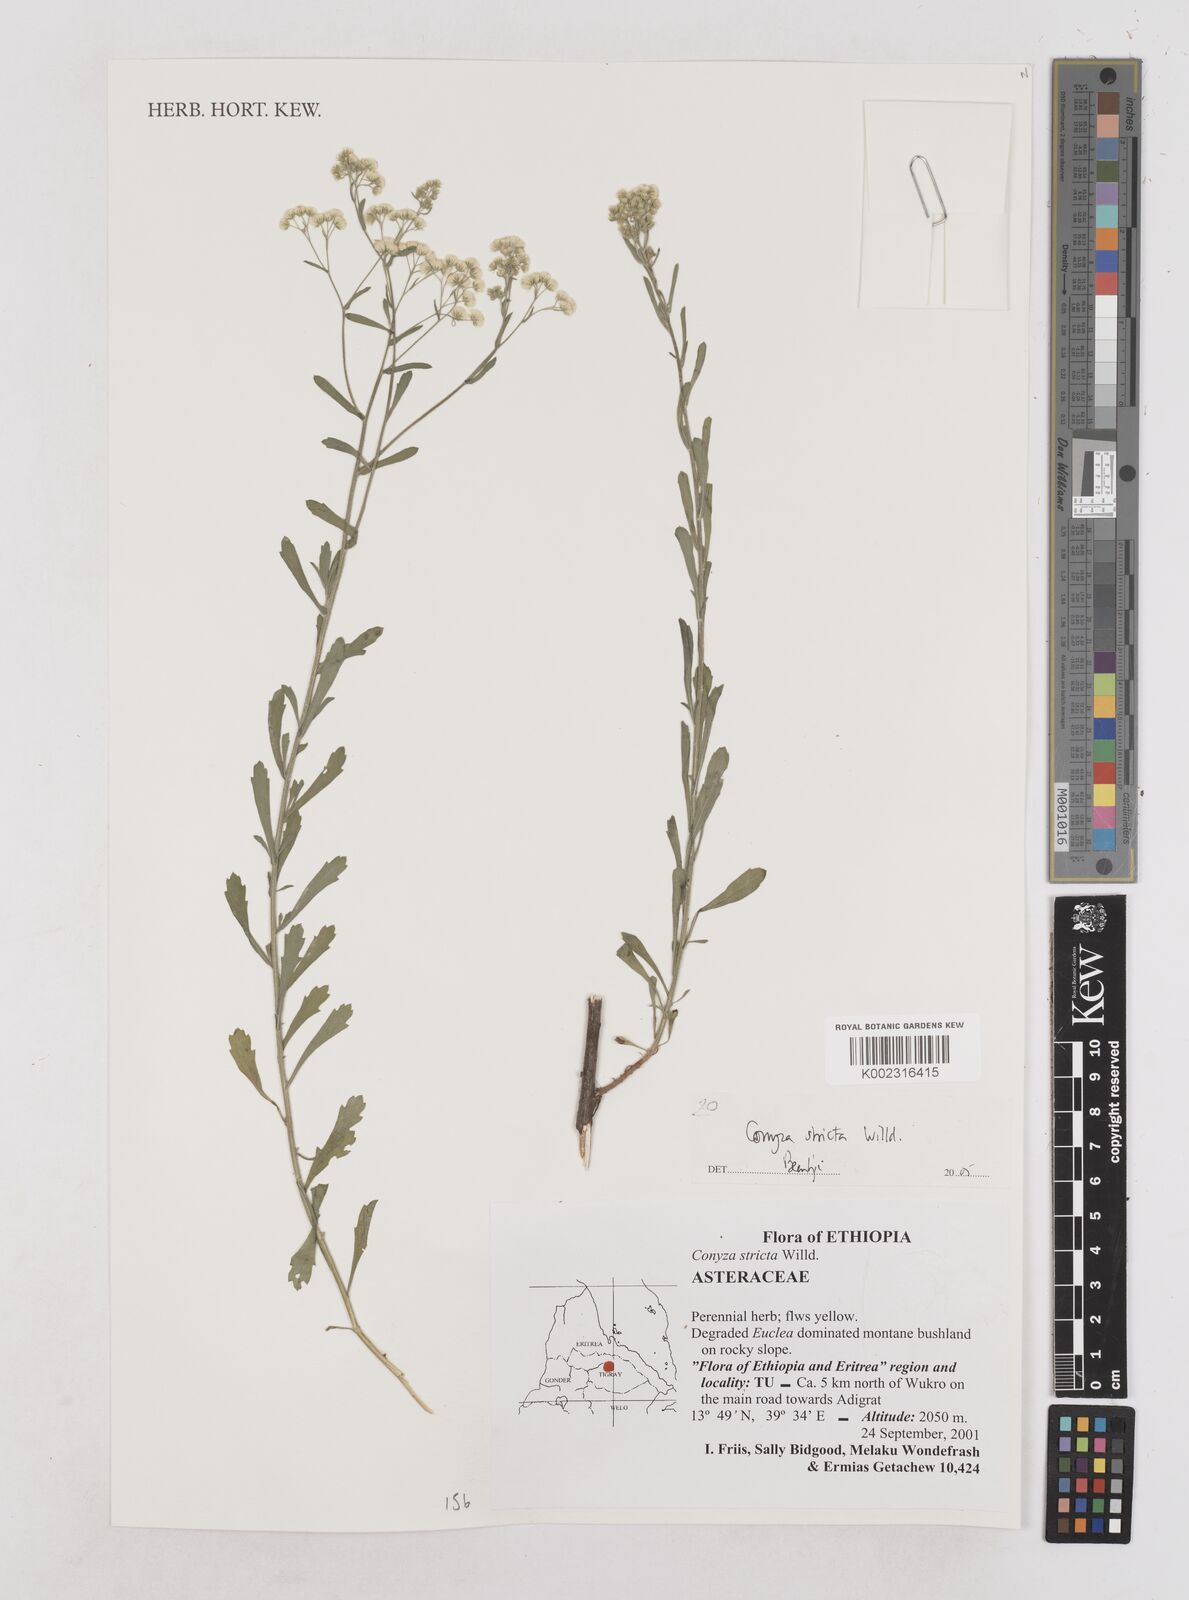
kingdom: Plantae
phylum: Tracheophyta
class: Magnoliopsida
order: Asterales
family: Asteraceae
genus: Nidorella
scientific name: Nidorella triloba
